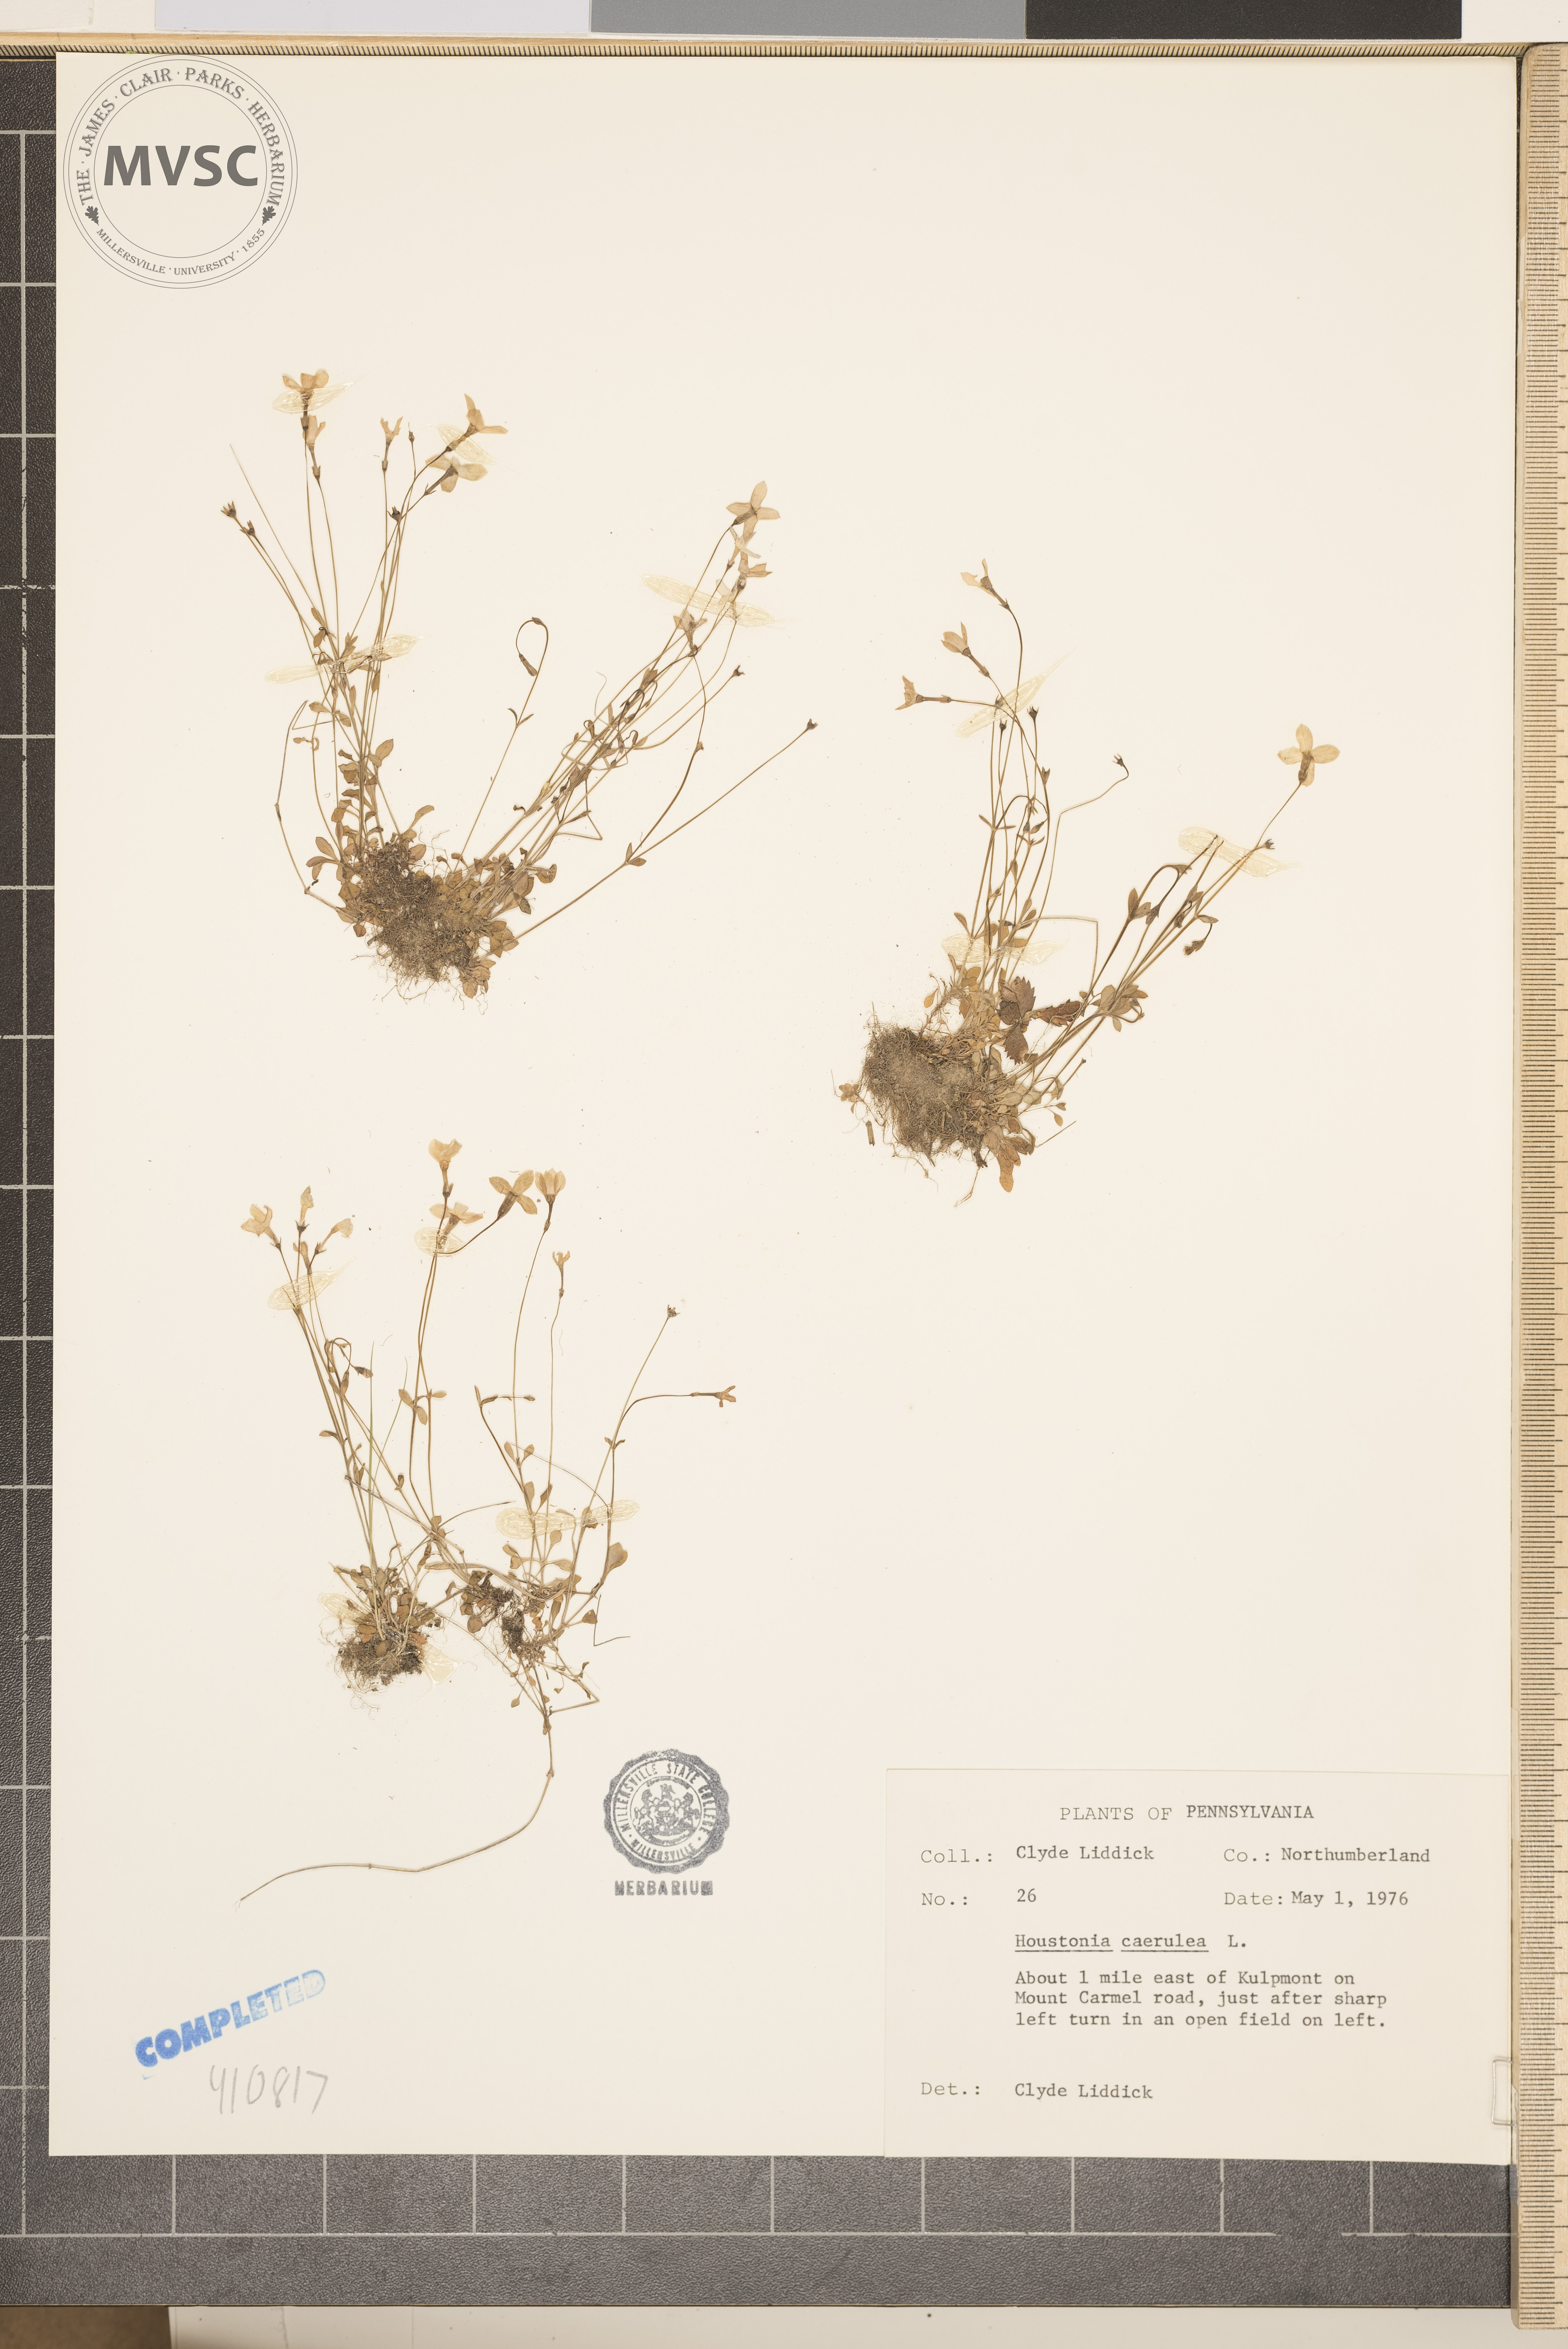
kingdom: Plantae
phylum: Tracheophyta
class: Magnoliopsida
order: Gentianales
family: Rubiaceae
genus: Houstonia
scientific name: Houstonia caerulea
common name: Bluets
